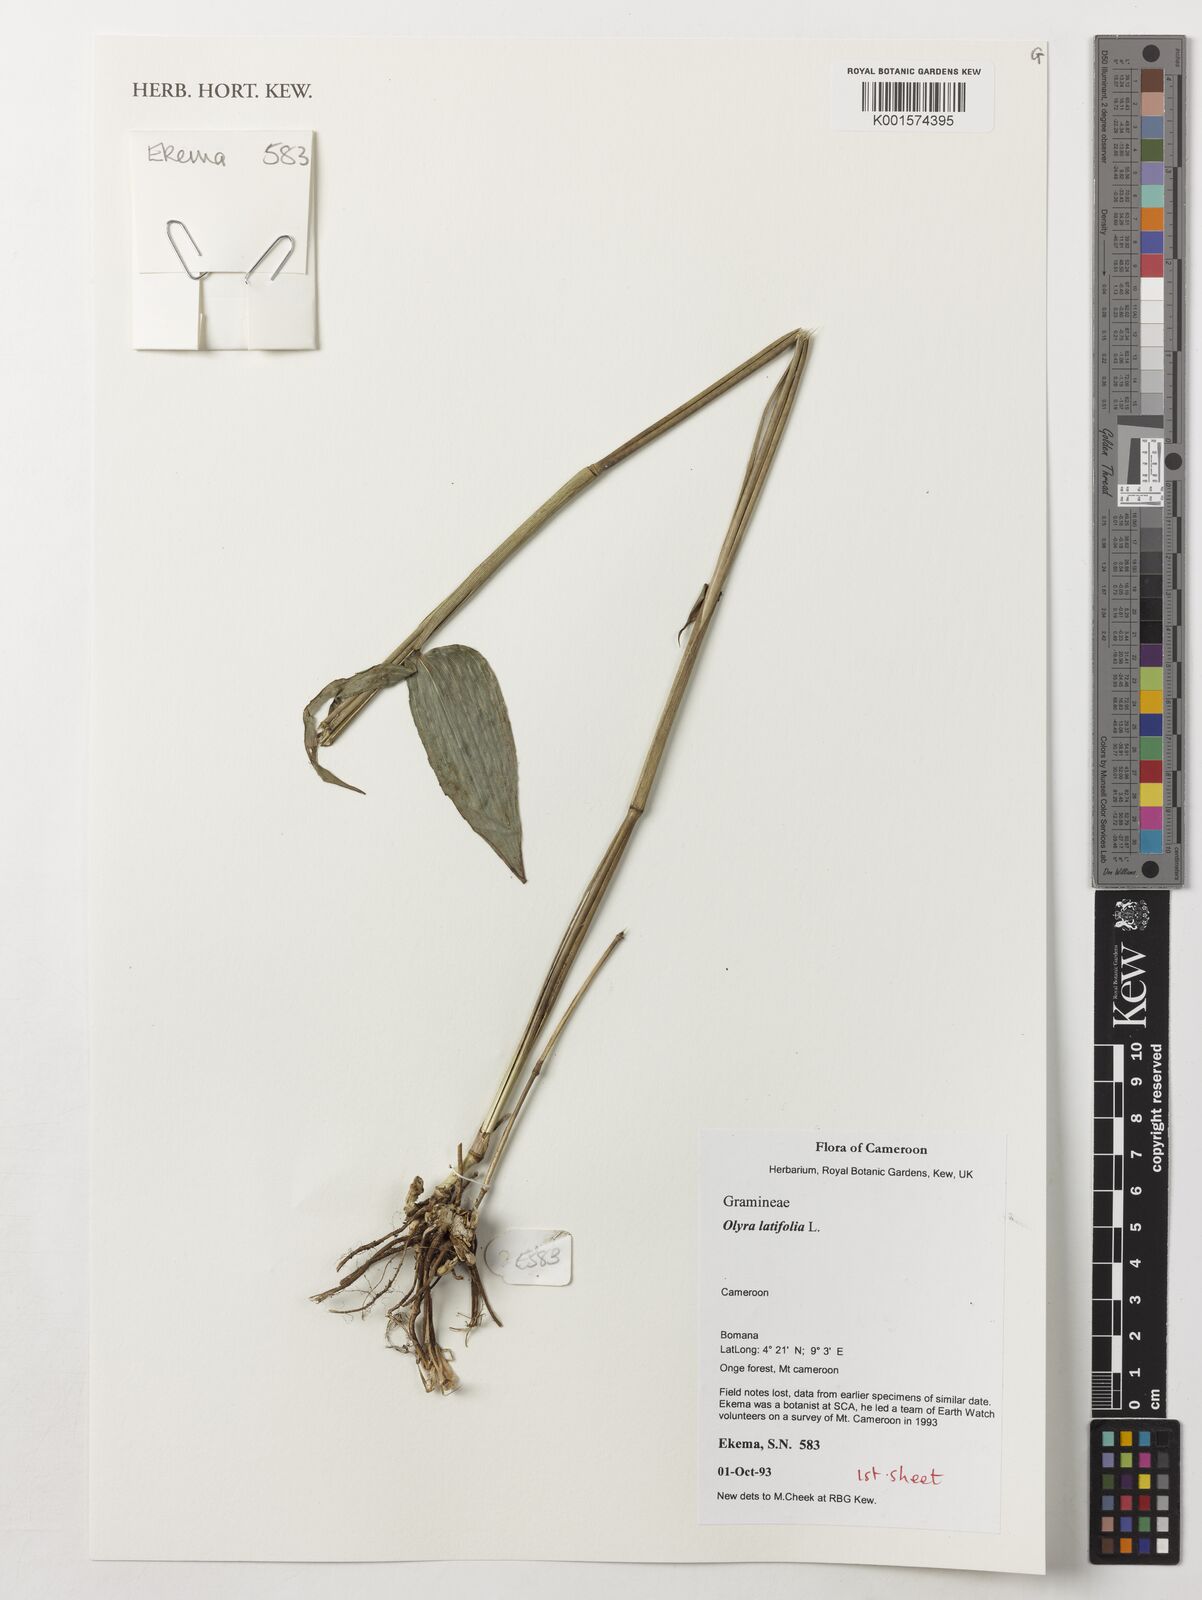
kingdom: Plantae
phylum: Tracheophyta
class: Liliopsida
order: Poales
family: Poaceae
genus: Olyra
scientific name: Olyra latifolia
